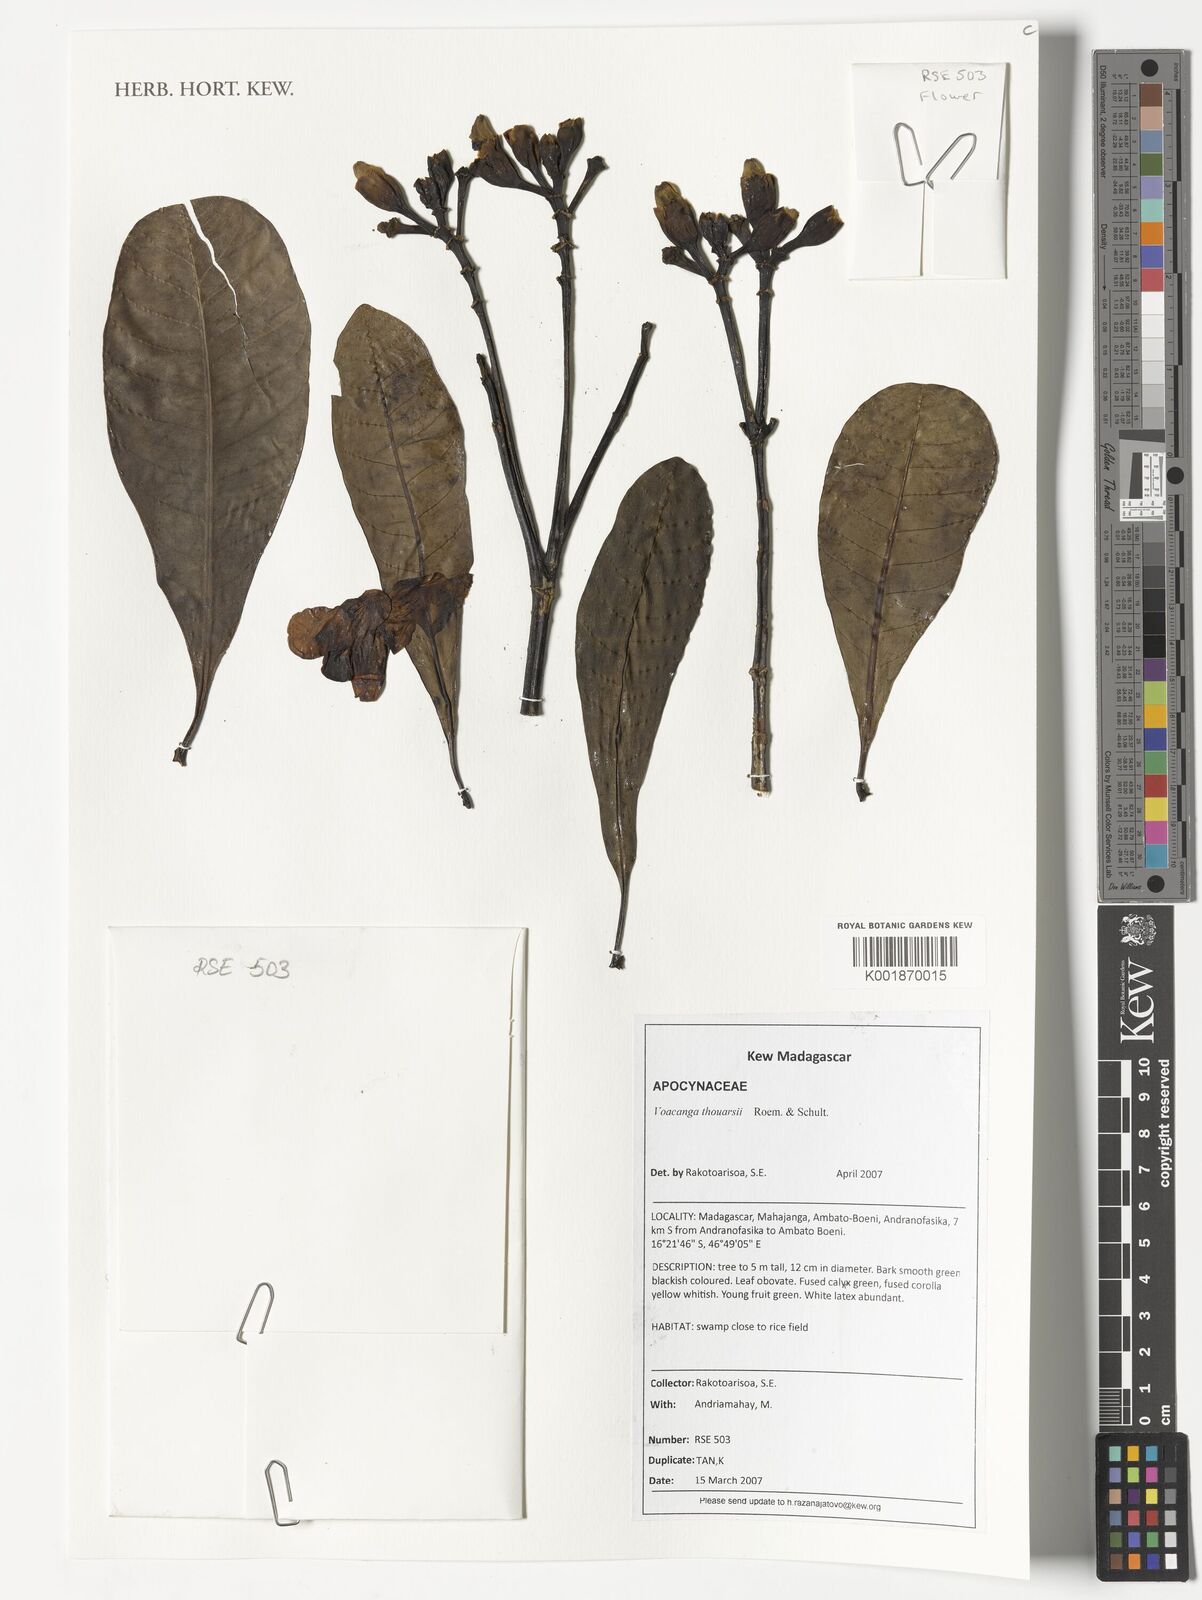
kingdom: Plantae
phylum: Tracheophyta
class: Magnoliopsida
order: Gentianales
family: Apocynaceae
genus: Voacanga
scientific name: Voacanga thouarsii
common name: Wild frangipani
